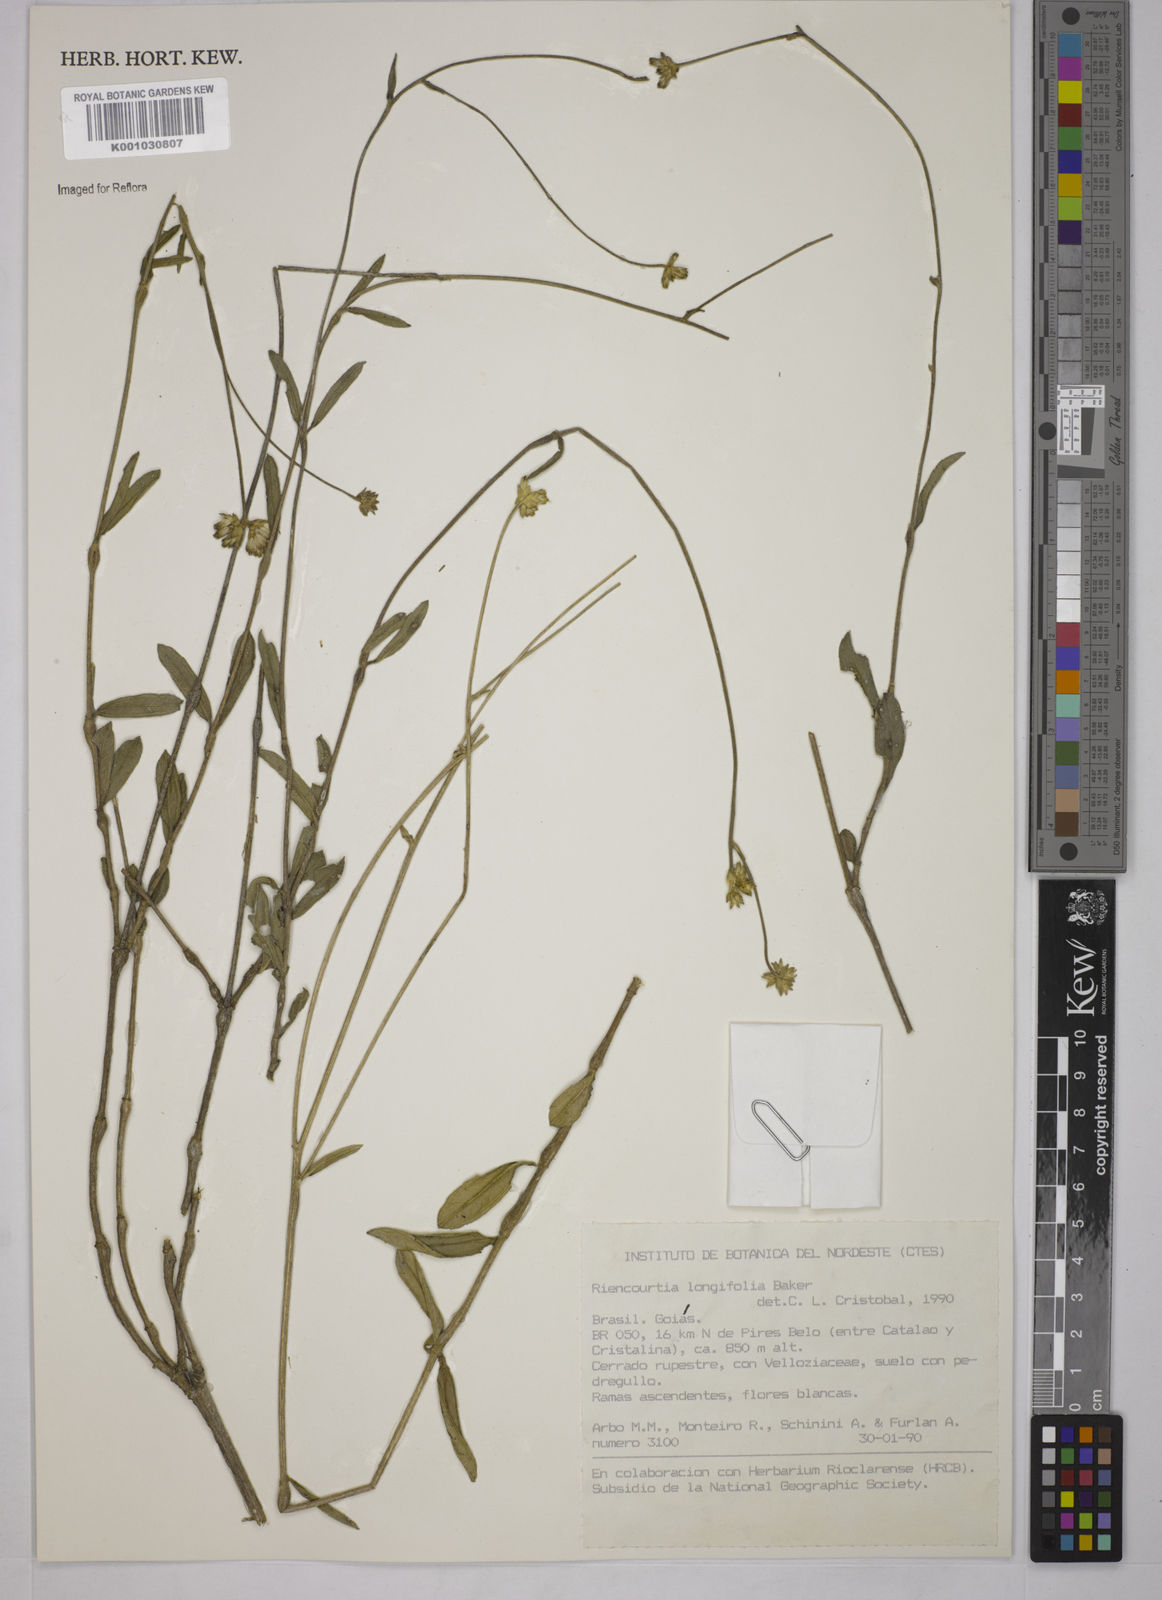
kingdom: Plantae
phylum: Tracheophyta
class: Magnoliopsida
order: Asterales
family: Asteraceae
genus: Riencourtia
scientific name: Riencourtia longifolia
